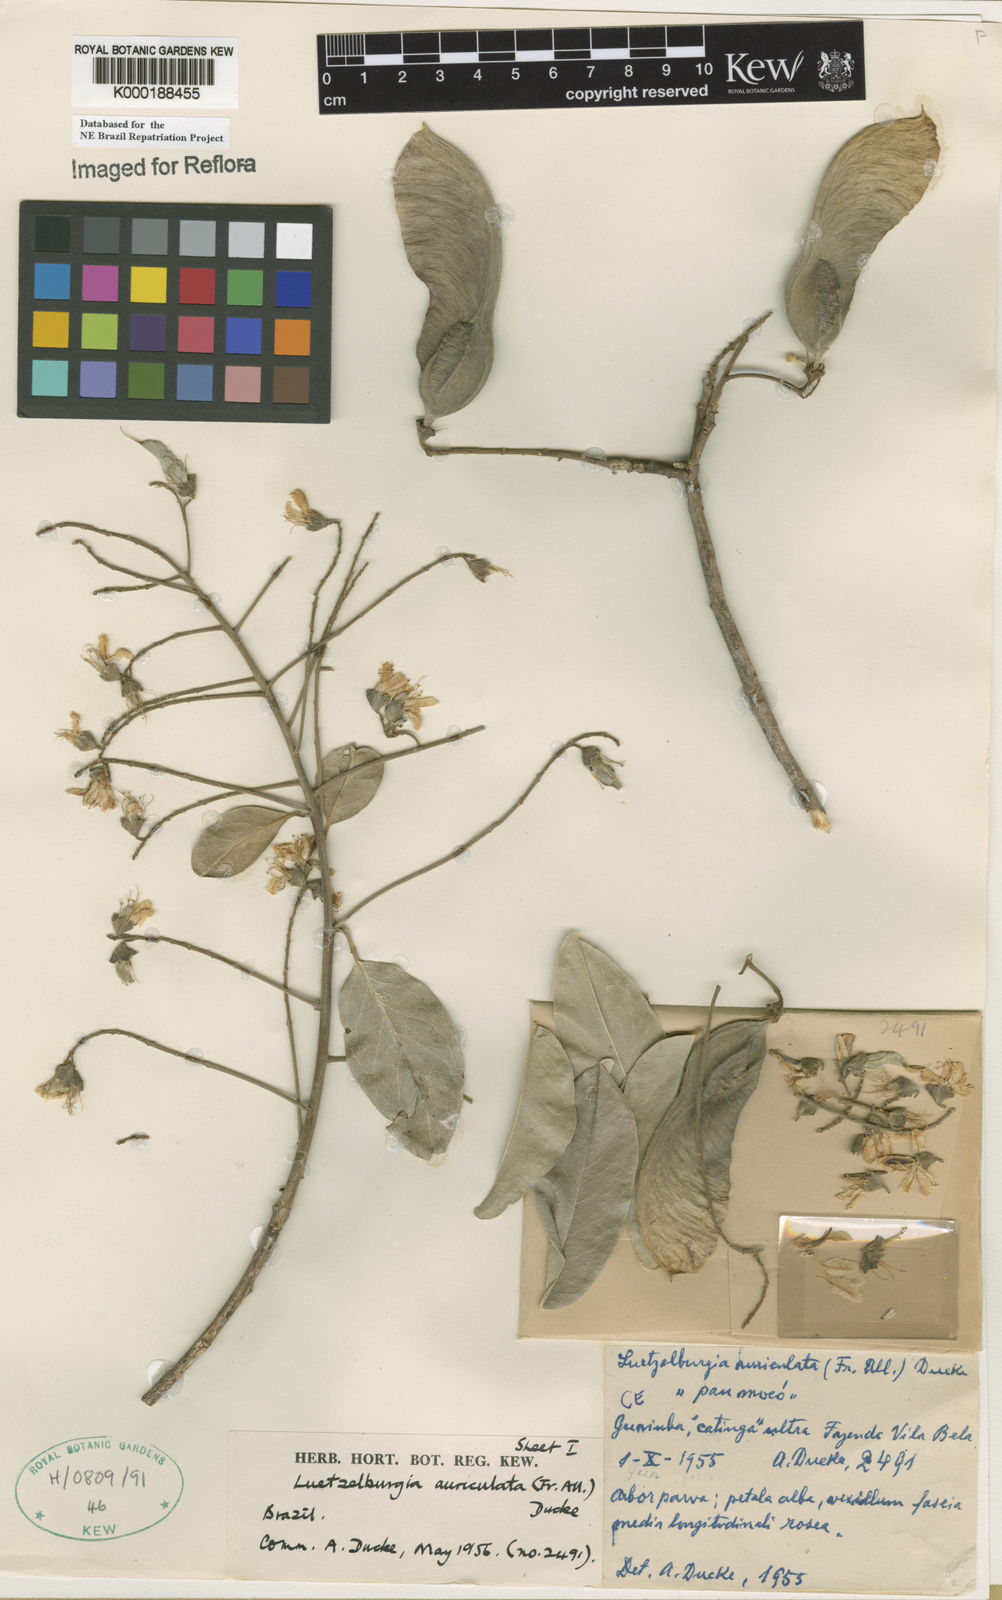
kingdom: Plantae
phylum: Tracheophyta
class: Magnoliopsida
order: Fabales
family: Fabaceae
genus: Luetzelburgia
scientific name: Luetzelburgia auriculata
